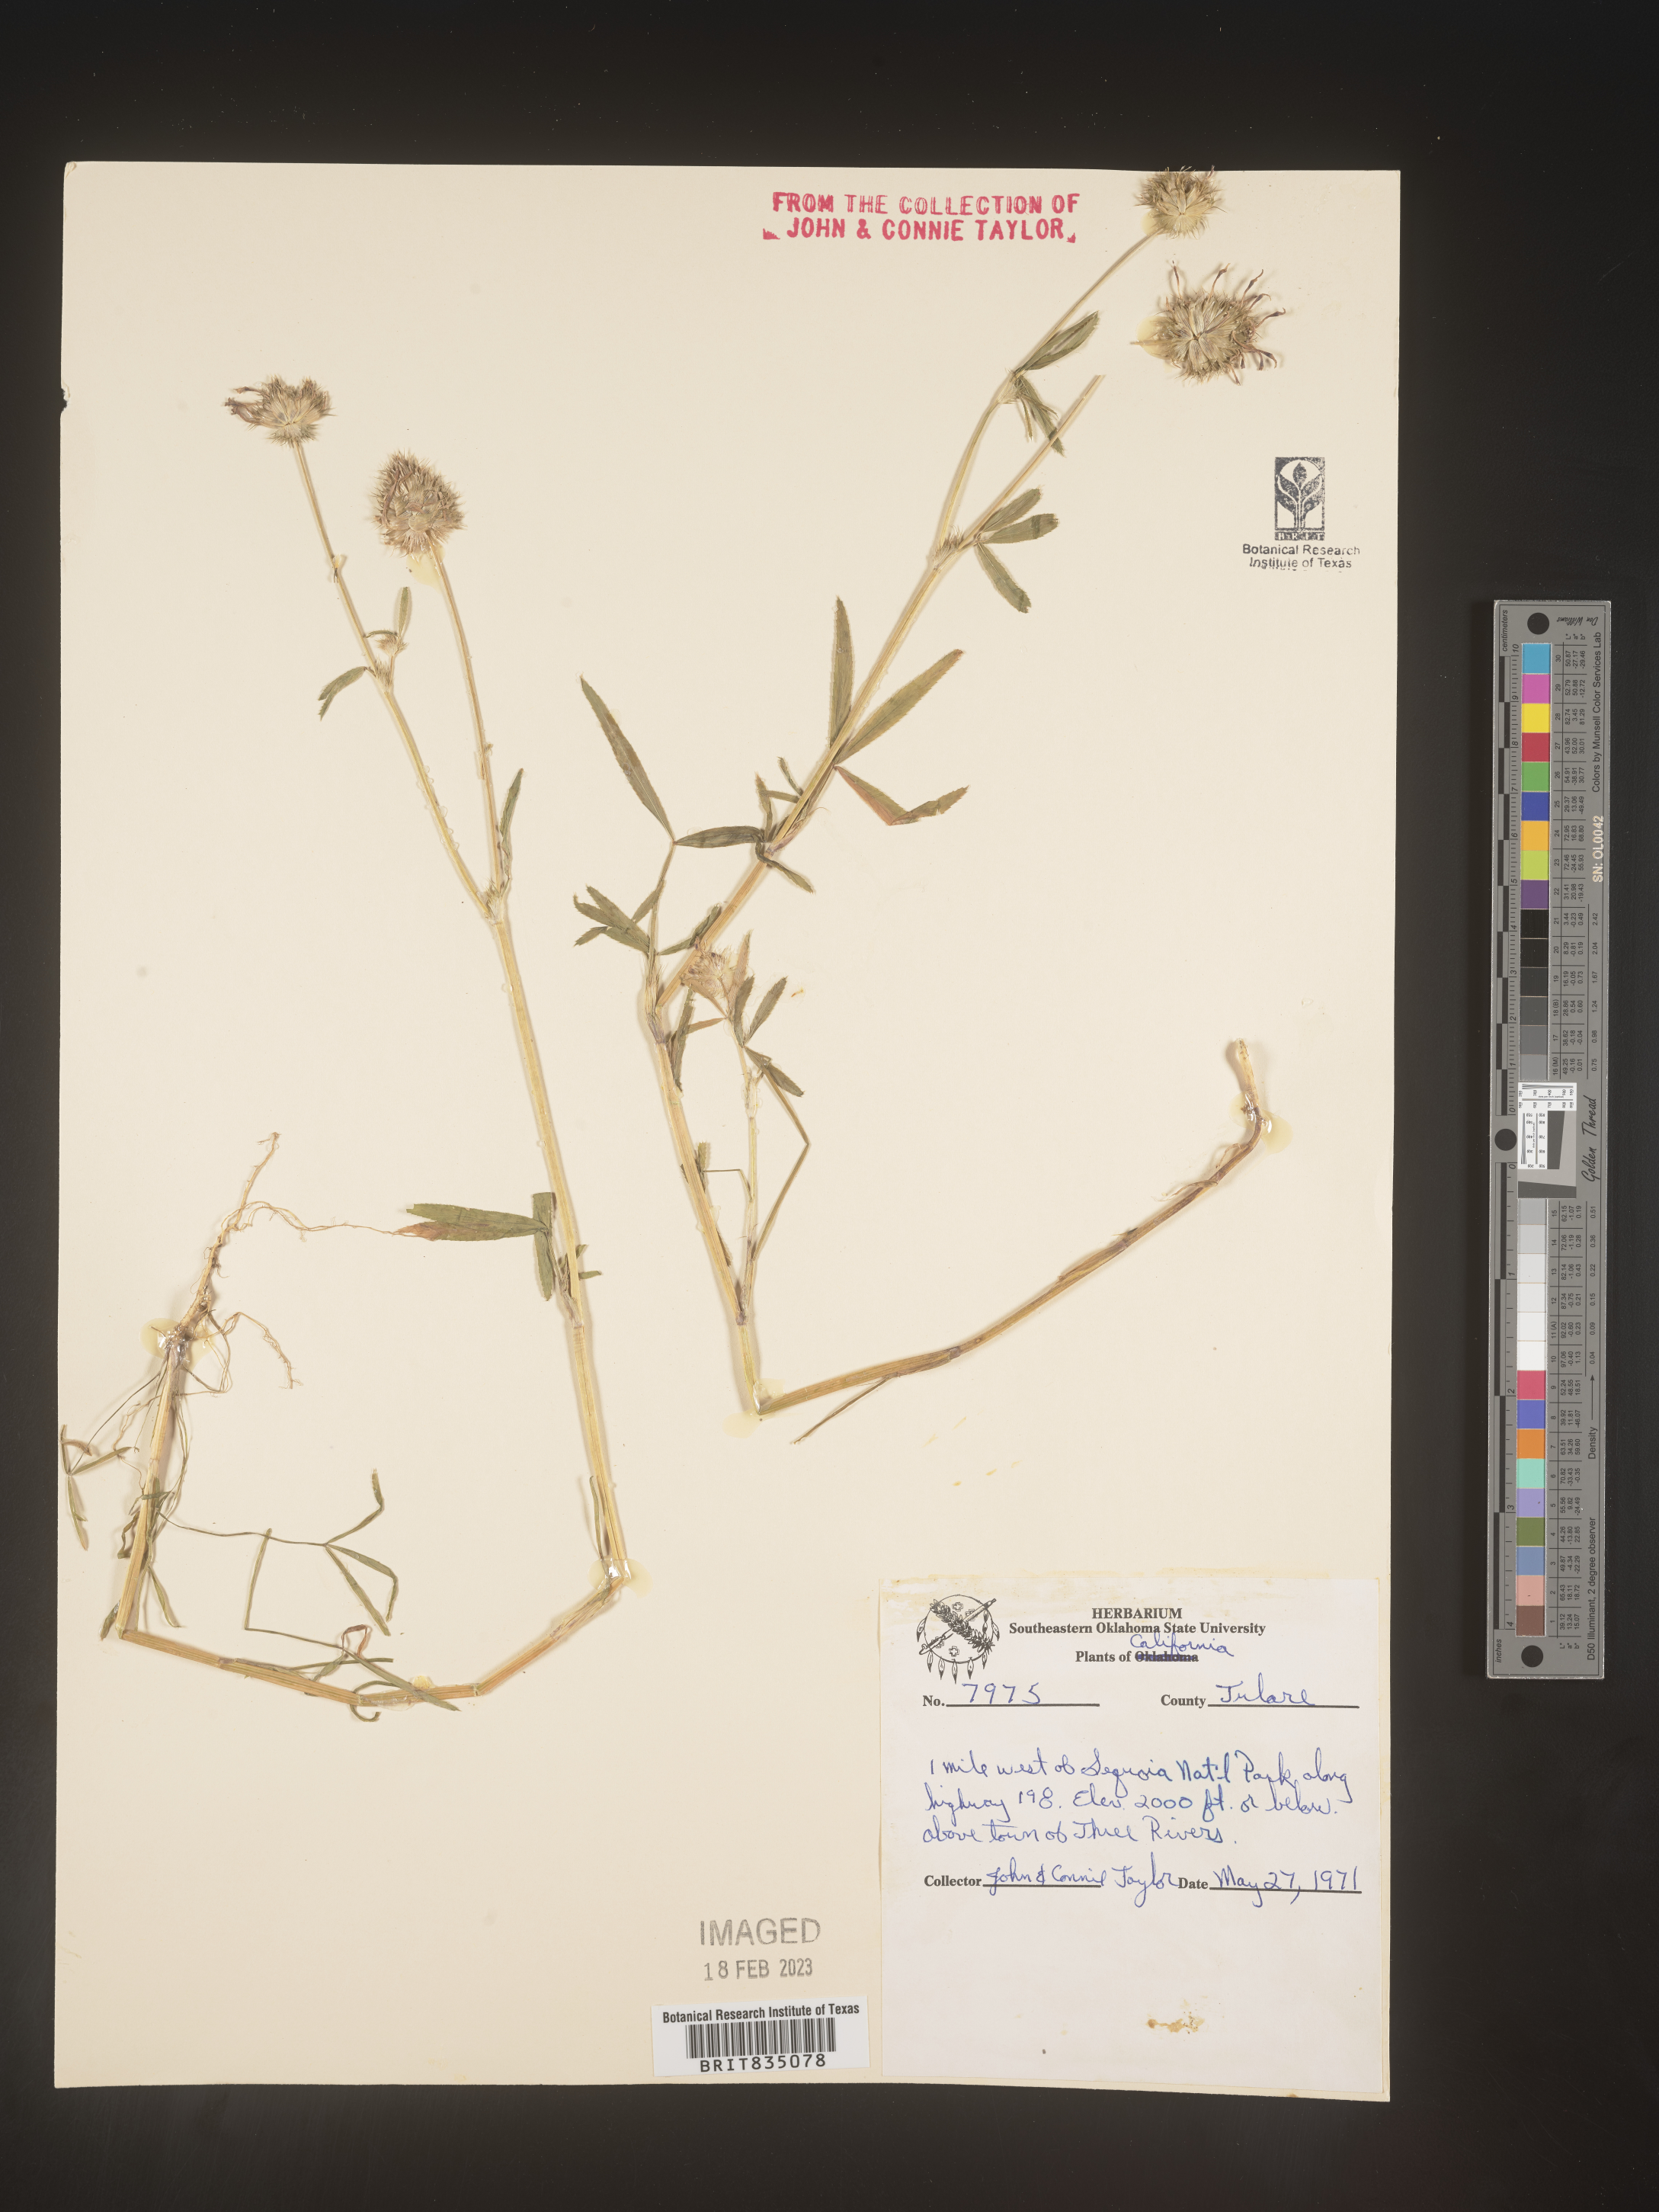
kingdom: Plantae
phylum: Tracheophyta
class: Magnoliopsida
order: Fabales
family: Fabaceae
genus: Trifolium
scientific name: Trifolium
